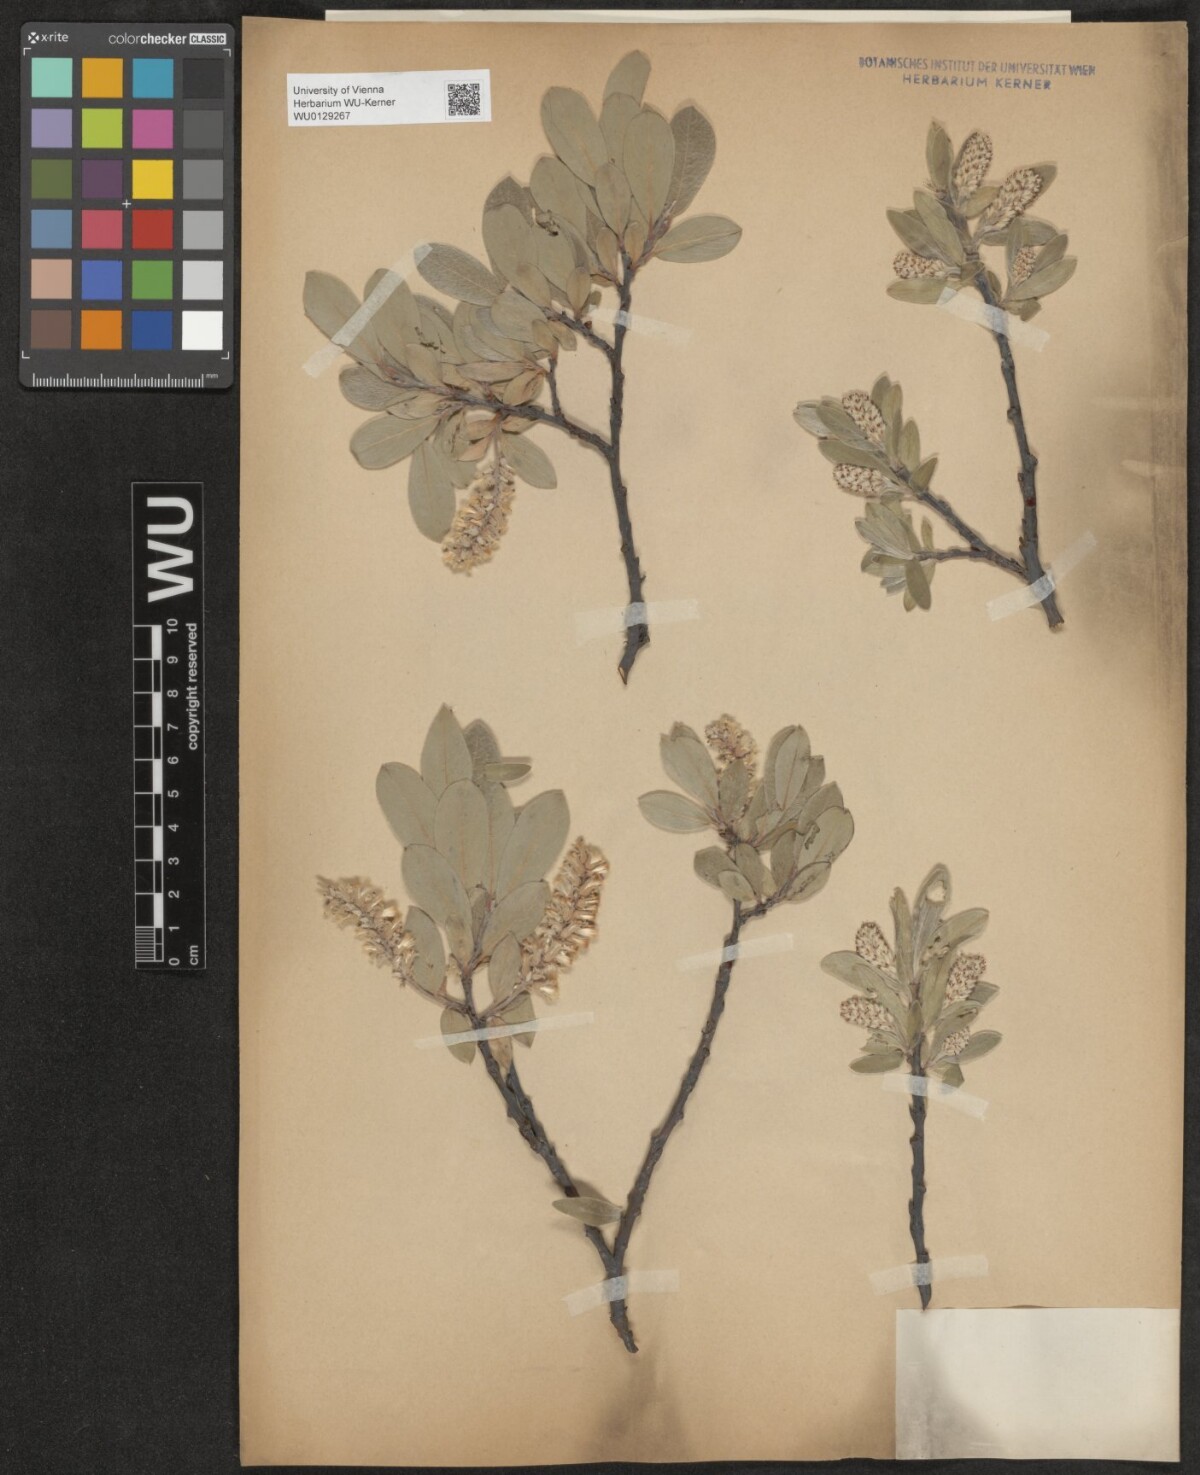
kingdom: Plantae
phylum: Tracheophyta
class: Magnoliopsida
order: Malpighiales
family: Salicaceae
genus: Salix
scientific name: Salix glauca
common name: Glaucous willow
